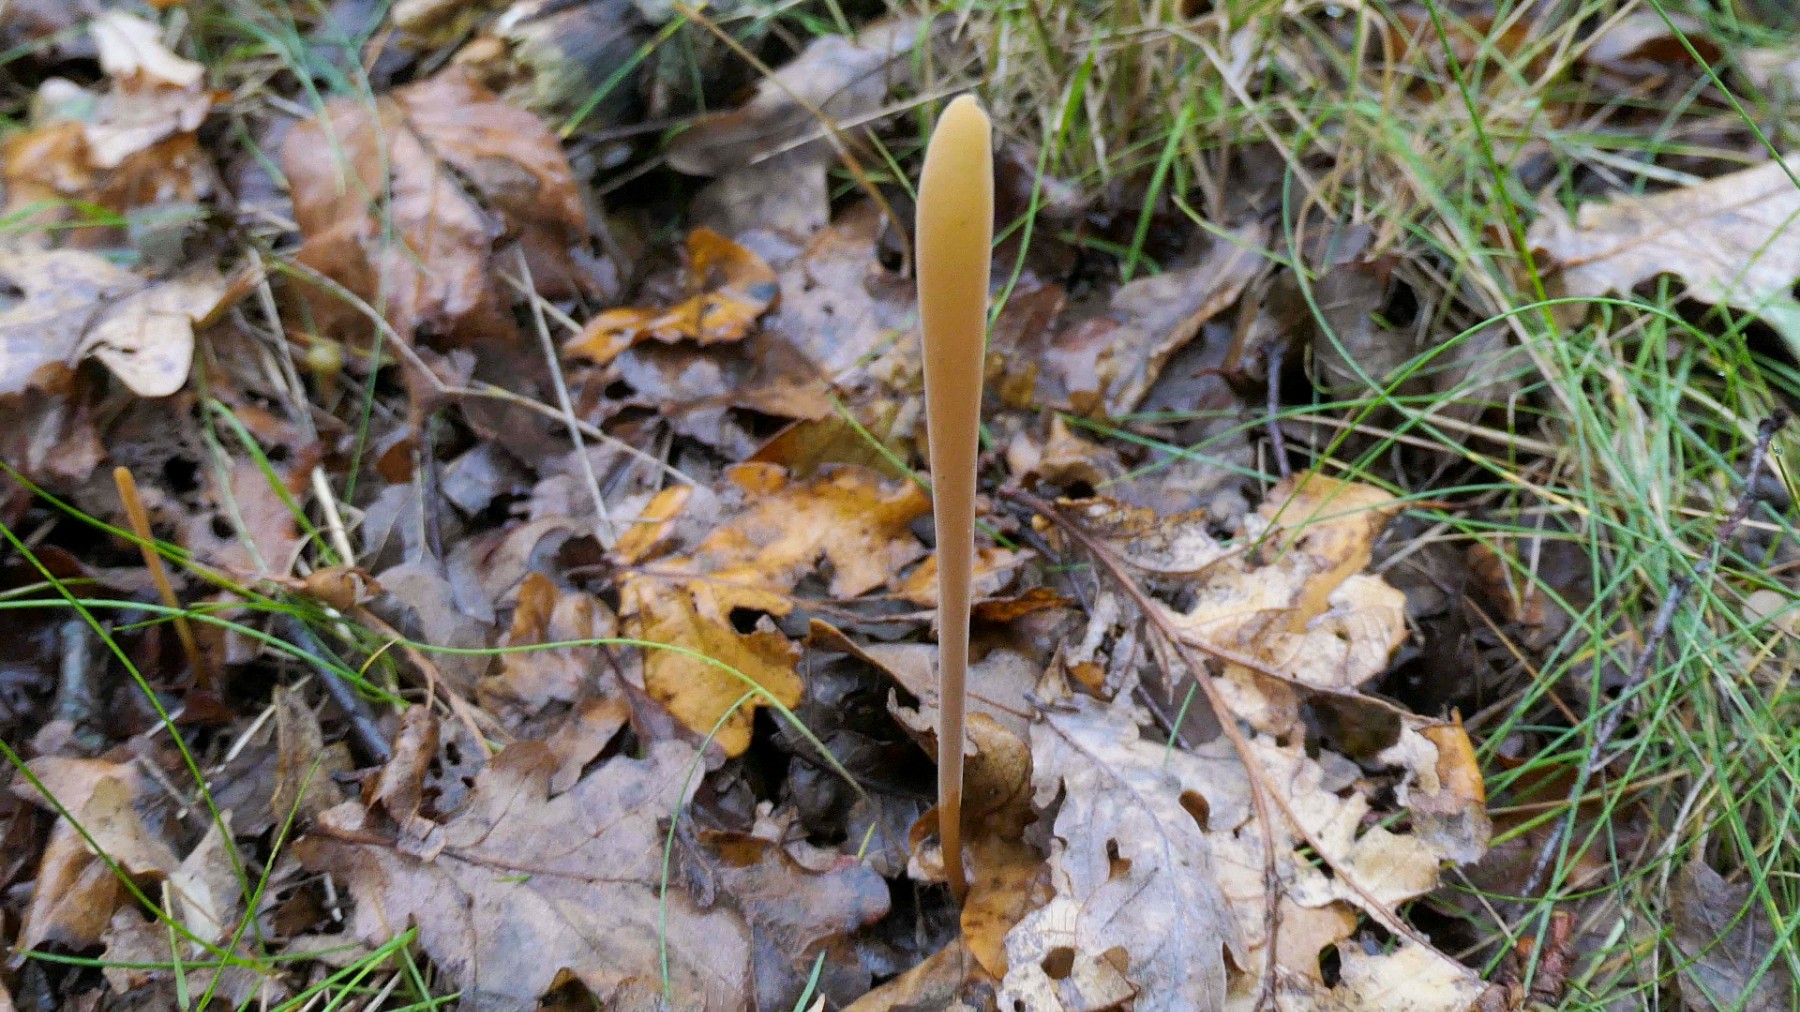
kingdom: Fungi
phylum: Basidiomycota
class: Agaricomycetes
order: Agaricales
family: Typhulaceae
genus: Typhula
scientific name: Typhula fistulosa
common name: pibet rørkølle
